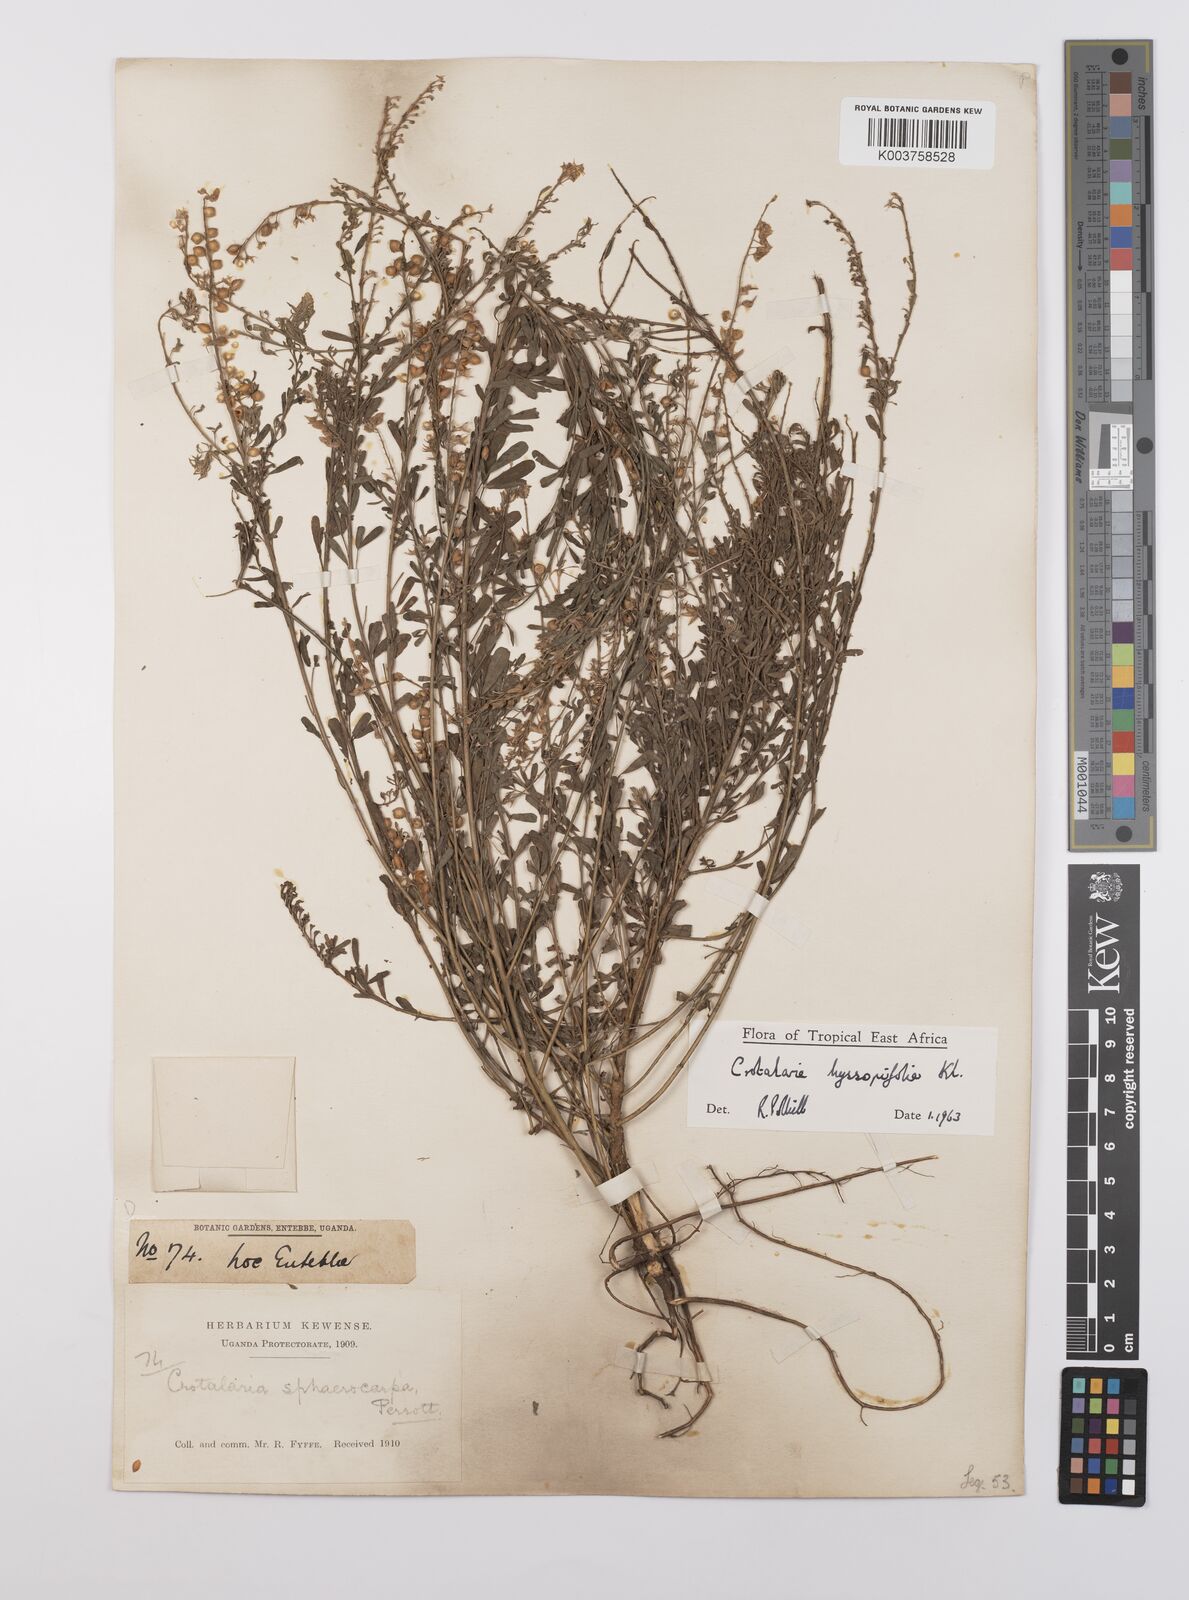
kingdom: Plantae
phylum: Tracheophyta
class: Magnoliopsida
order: Fabales
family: Fabaceae
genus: Crotalaria
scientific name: Crotalaria hyssopifolia
